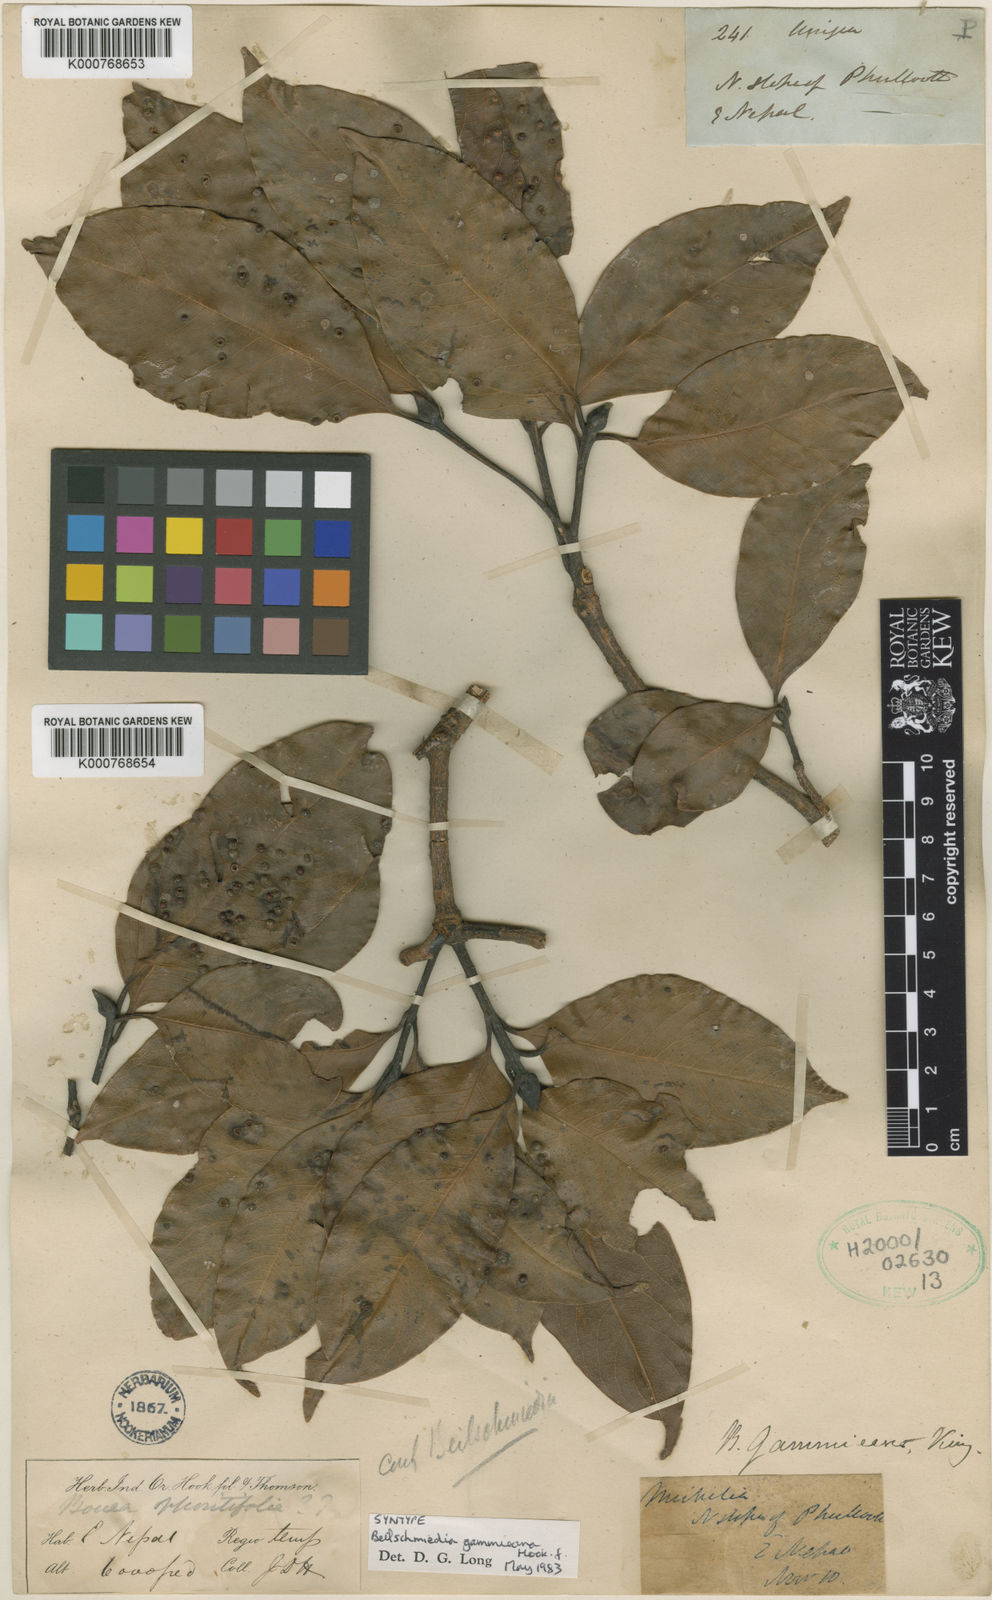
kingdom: Plantae
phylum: Tracheophyta
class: Magnoliopsida
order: Laurales
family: Lauraceae
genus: Beilschmiedia
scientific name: Beilschmiedia gammieana
